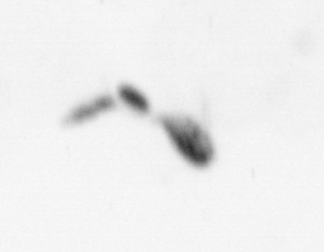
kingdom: Animalia
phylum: Arthropoda
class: Copepoda
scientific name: Copepoda
